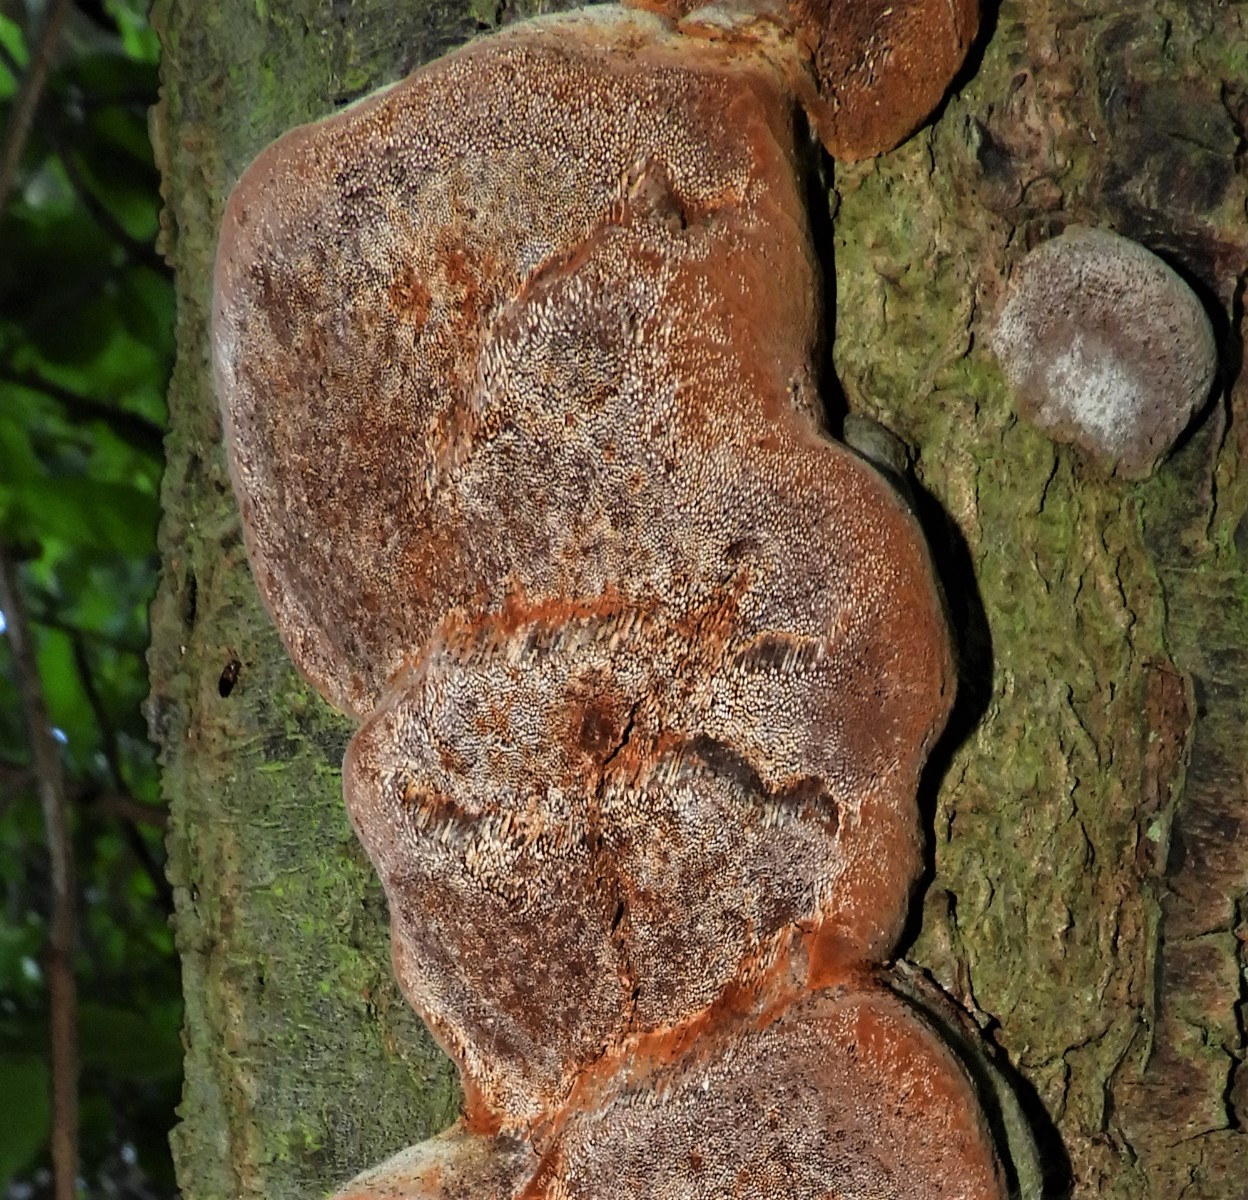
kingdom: Fungi
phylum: Basidiomycota
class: Agaricomycetes
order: Hymenochaetales
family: Hymenochaetaceae
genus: Phellinus
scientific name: Phellinus pomaceus
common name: blomme-ildporesvamp
